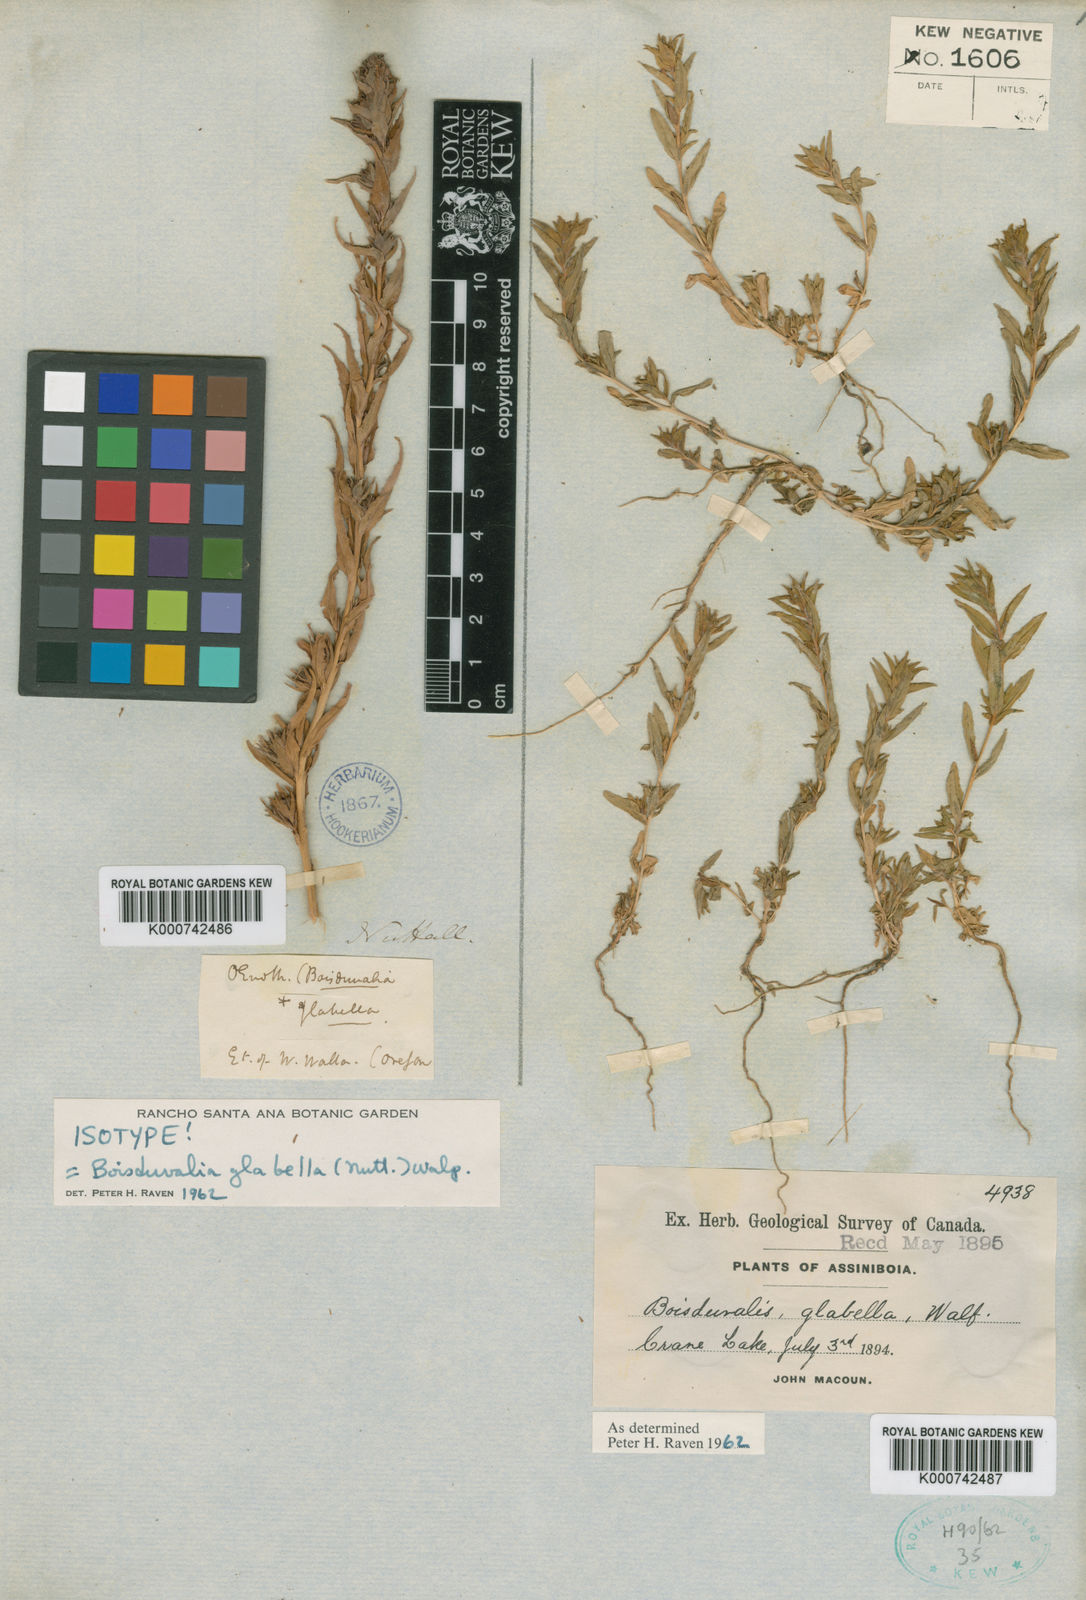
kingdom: Plantae
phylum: Tracheophyta
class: Magnoliopsida
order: Myrtales
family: Onagraceae
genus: Epilobium
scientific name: Epilobium campestre
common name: Smooth spike-primrose
